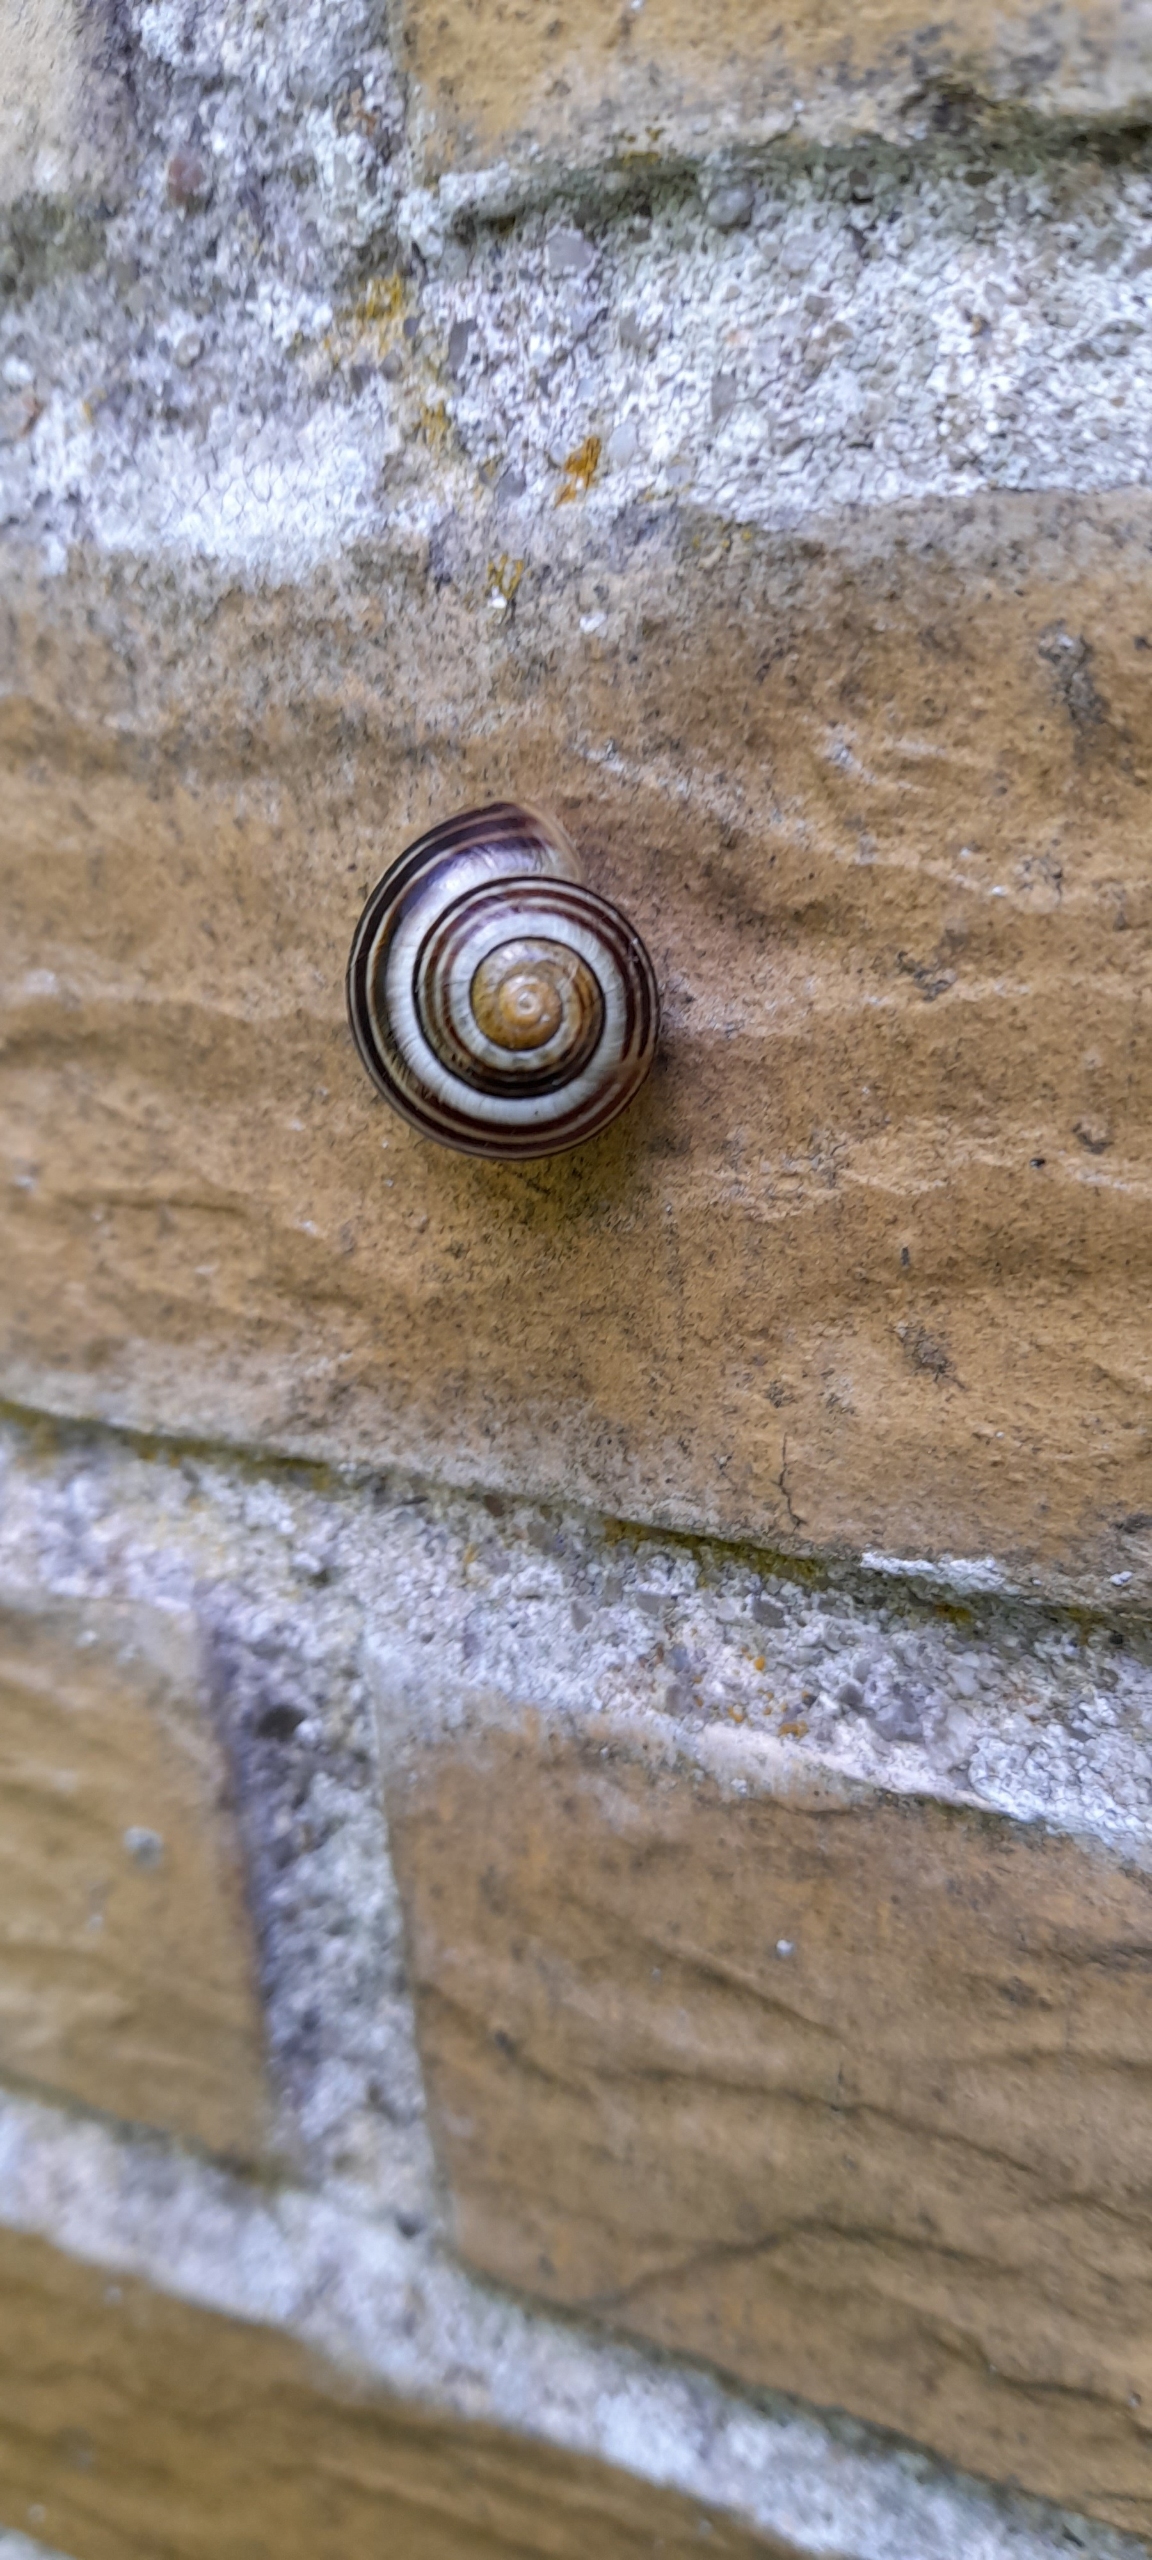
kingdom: Animalia
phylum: Mollusca
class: Gastropoda
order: Stylommatophora
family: Helicidae
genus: Cepaea
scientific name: Cepaea hortensis
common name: Havesnegl
